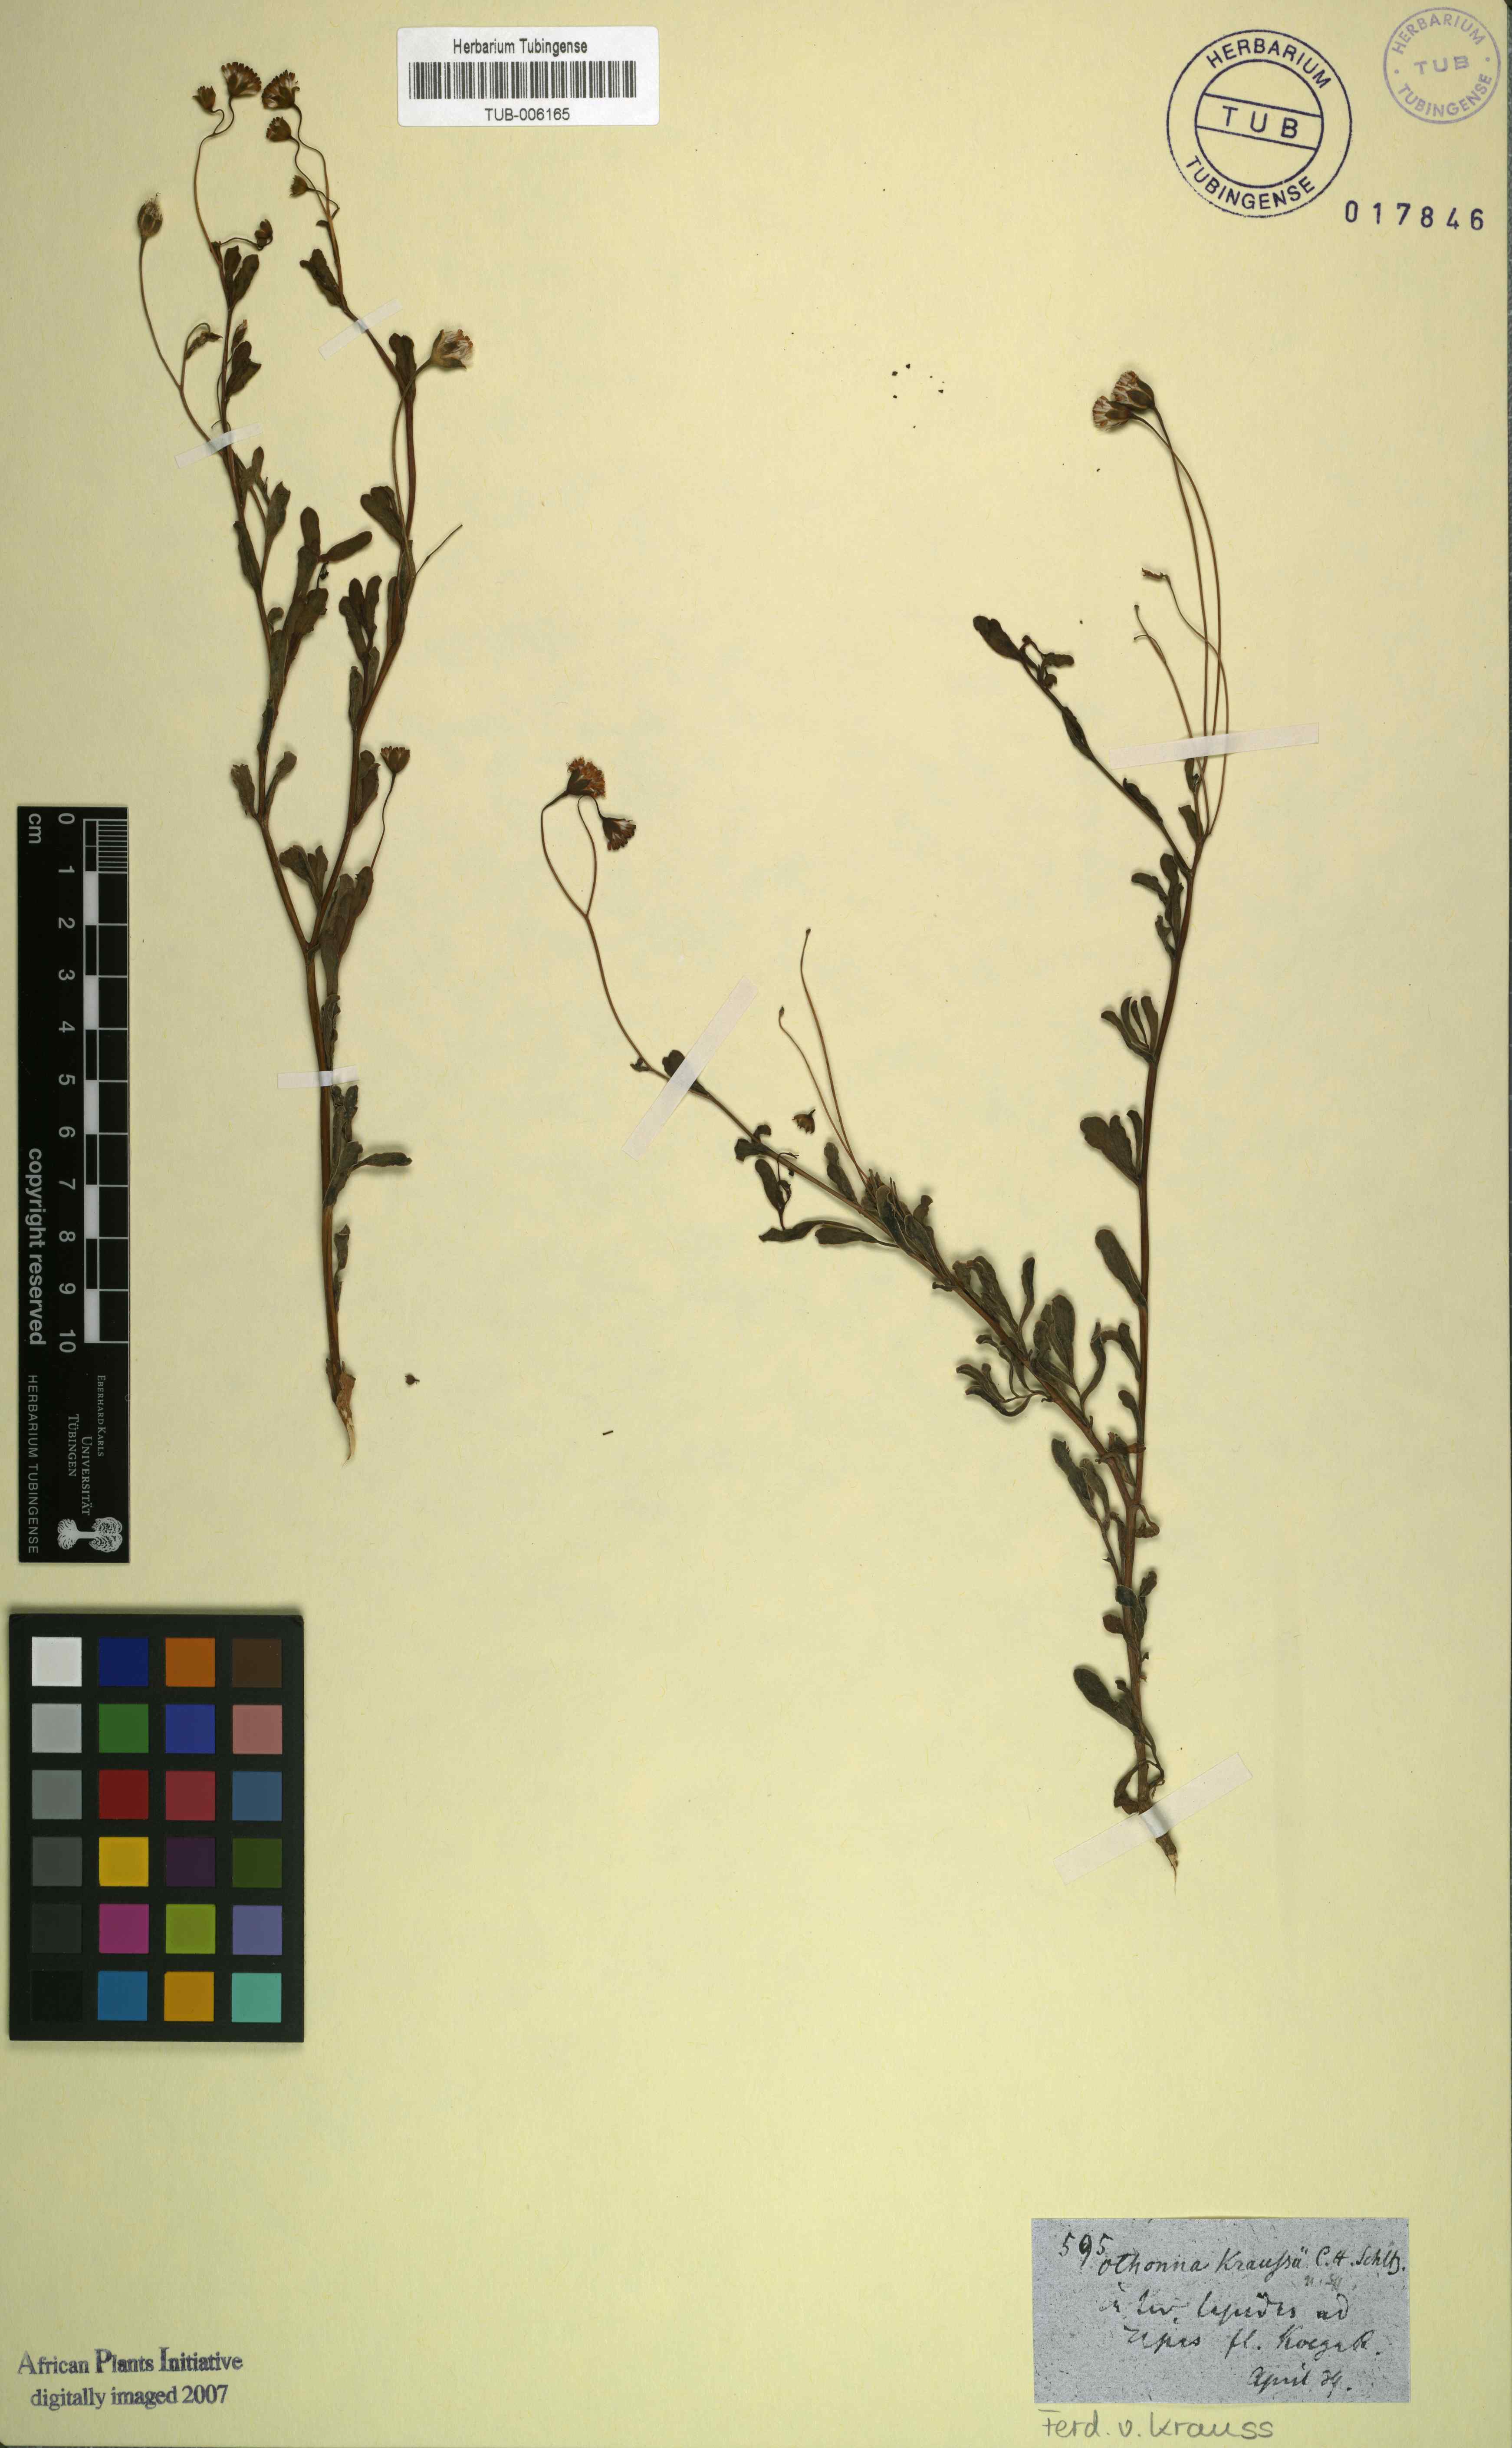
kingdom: Plantae
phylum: Tracheophyta
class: Magnoliopsida
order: Asterales
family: Asteraceae
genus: Hertia
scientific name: Hertia kraussii
